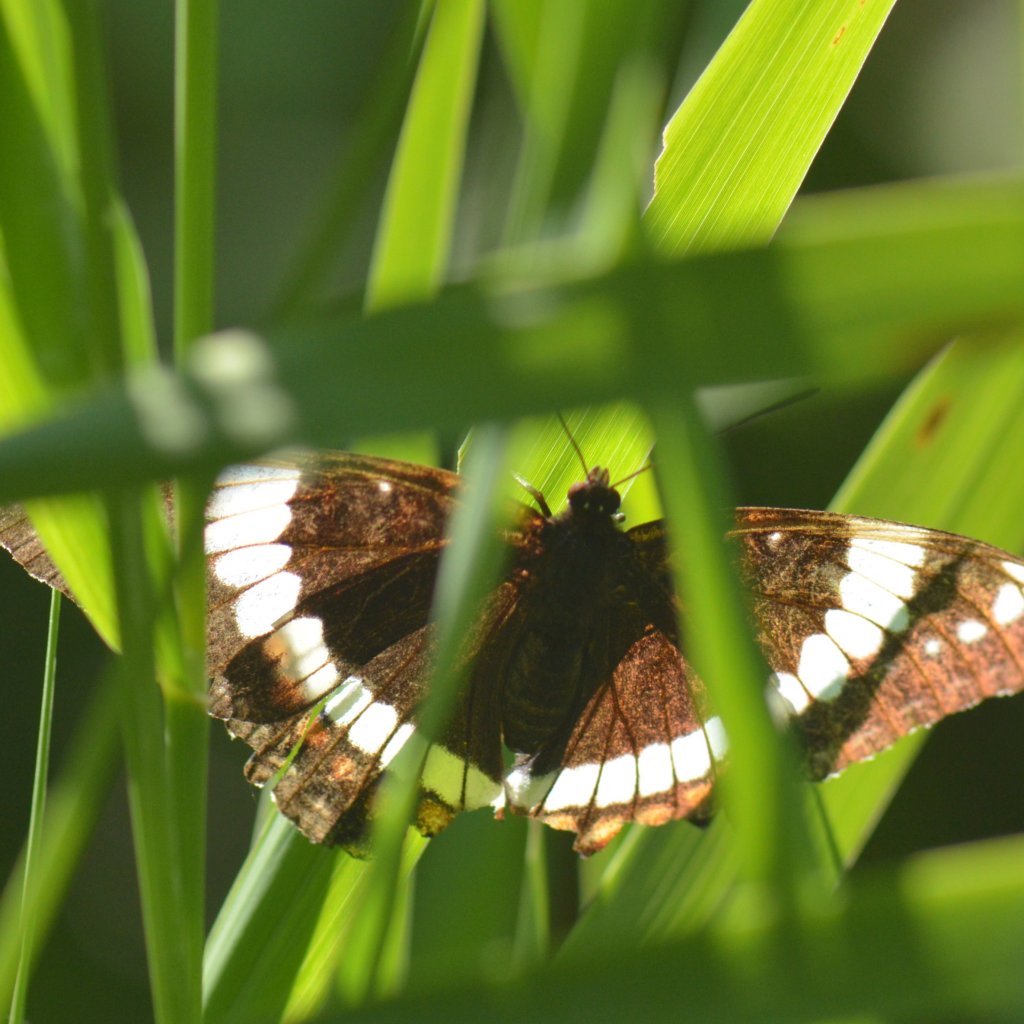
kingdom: Animalia
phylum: Arthropoda
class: Insecta
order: Lepidoptera
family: Nymphalidae
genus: Limenitis
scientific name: Limenitis arthemis
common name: Red-spotted Admiral
